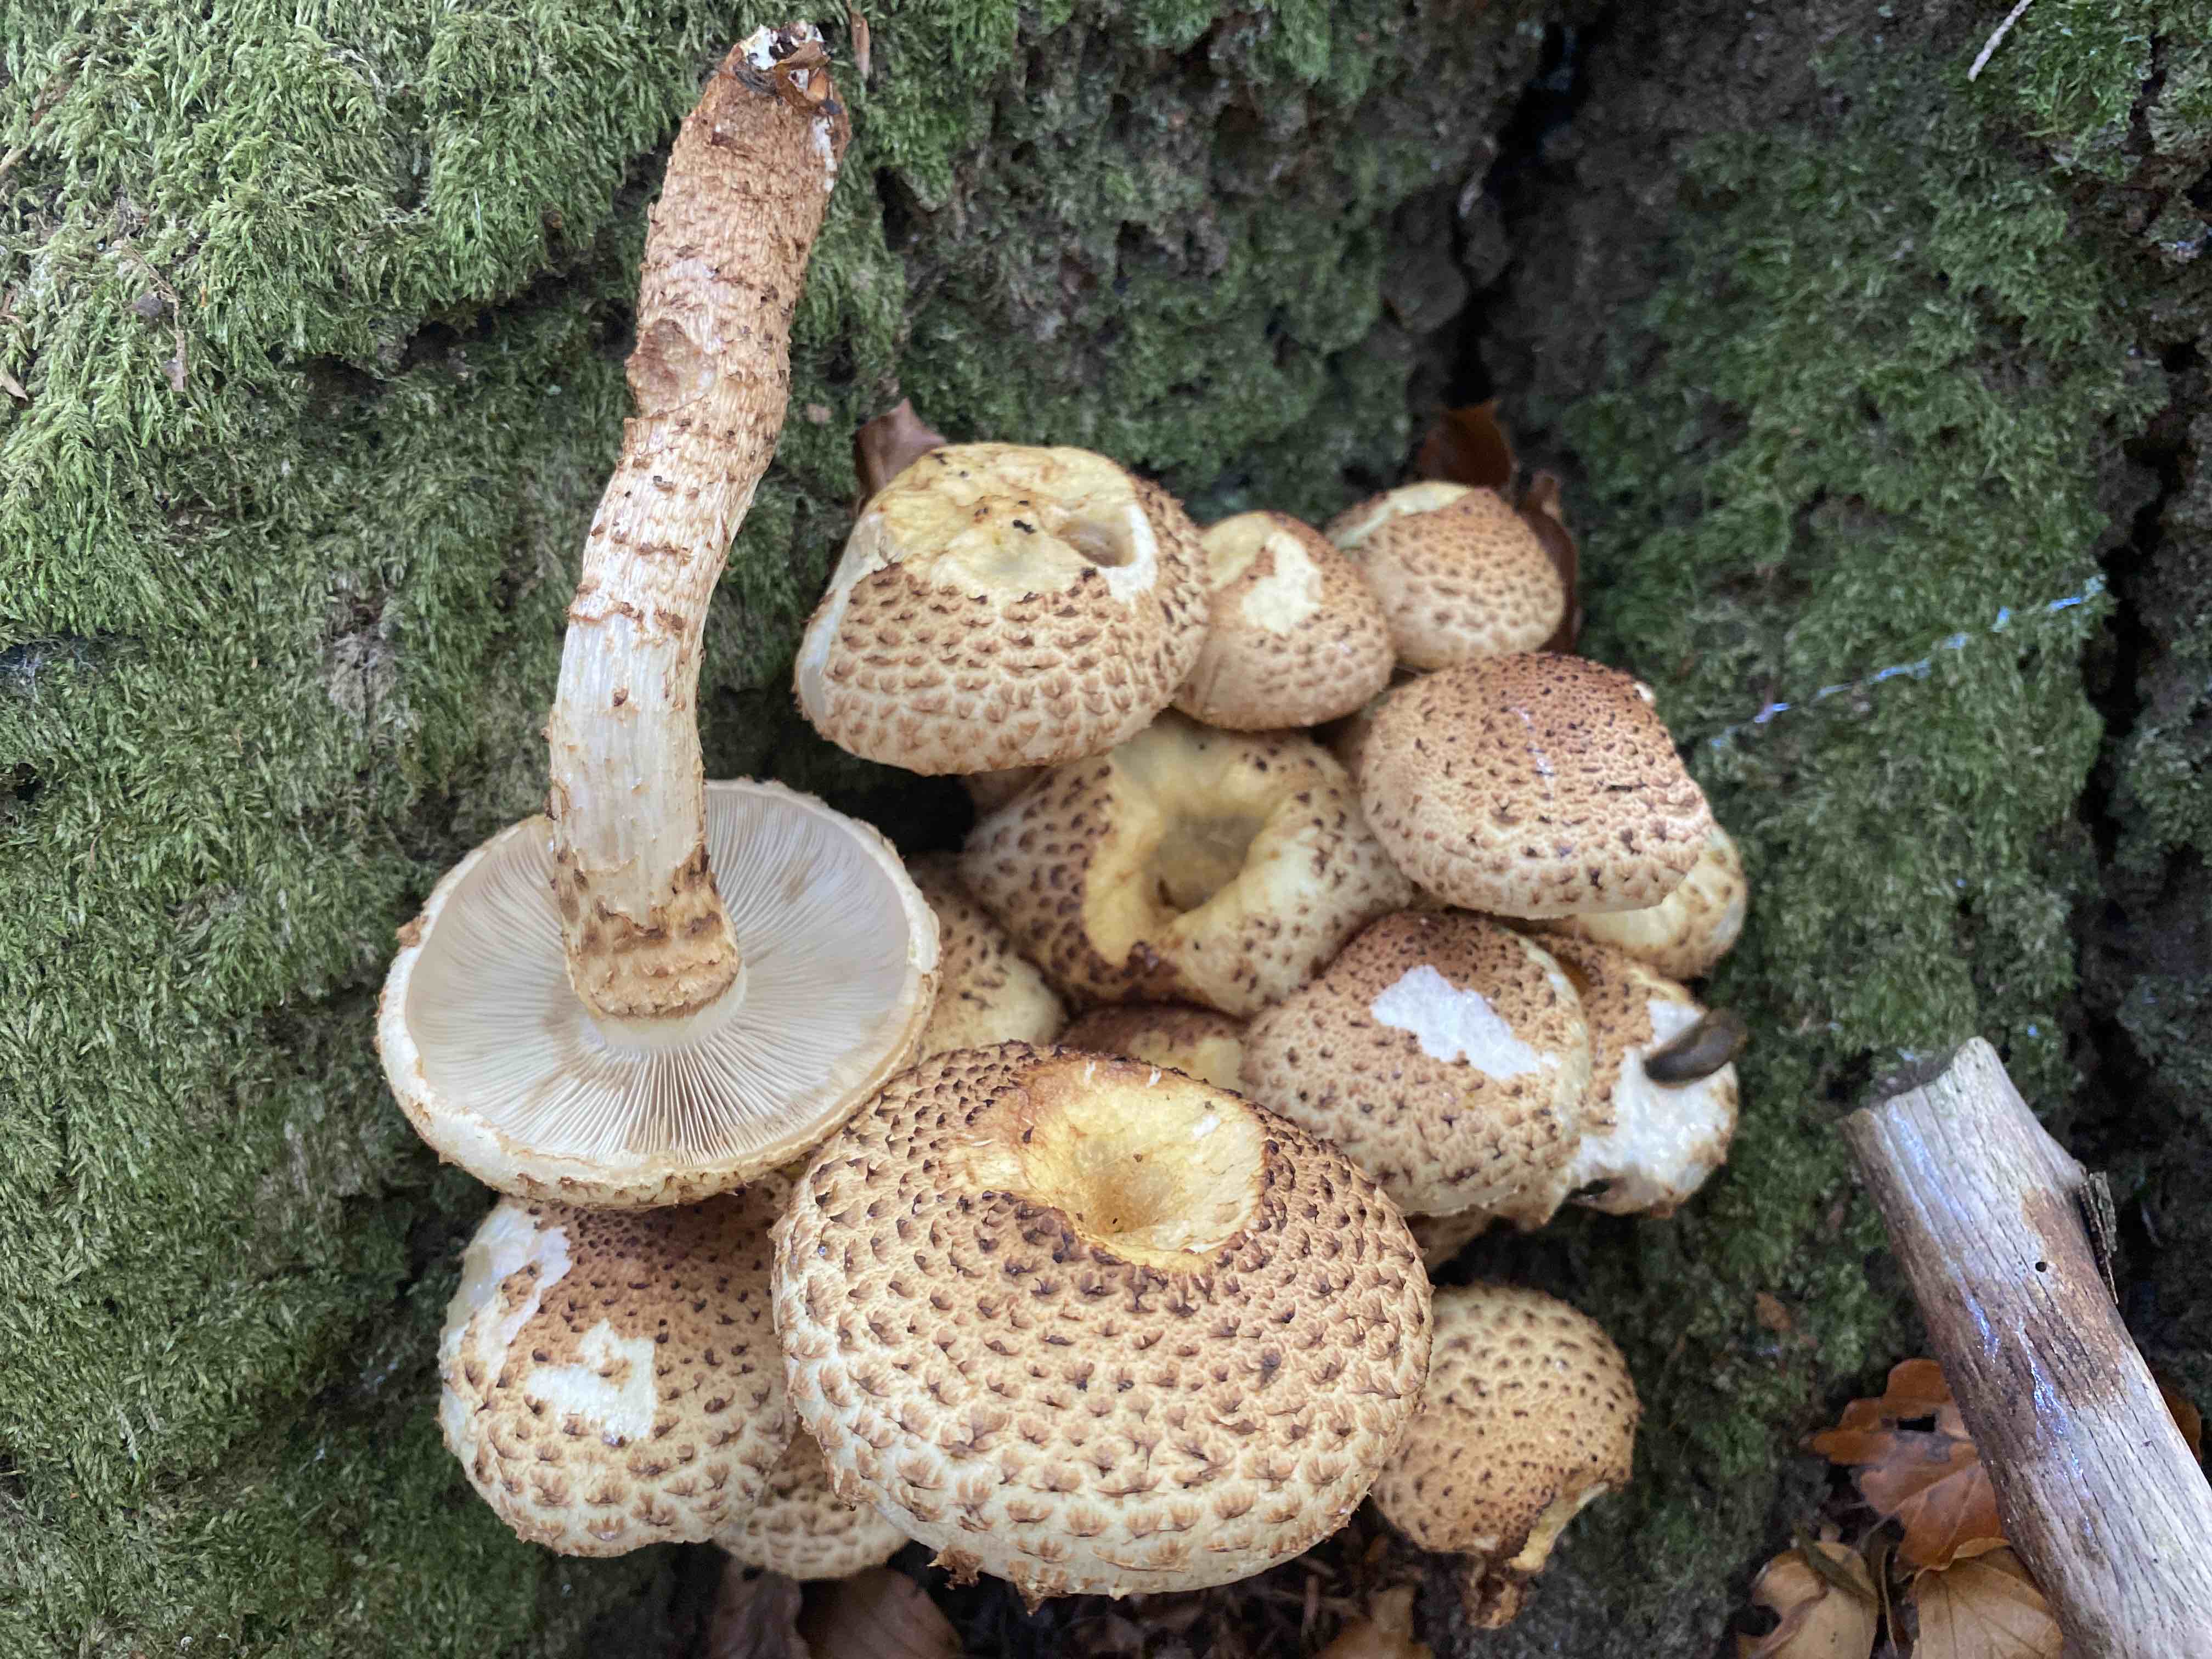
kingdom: Fungi
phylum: Basidiomycota
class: Agaricomycetes
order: Agaricales
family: Strophariaceae
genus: Pholiota
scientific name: Pholiota squarrosa
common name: krumskællet skælhat
